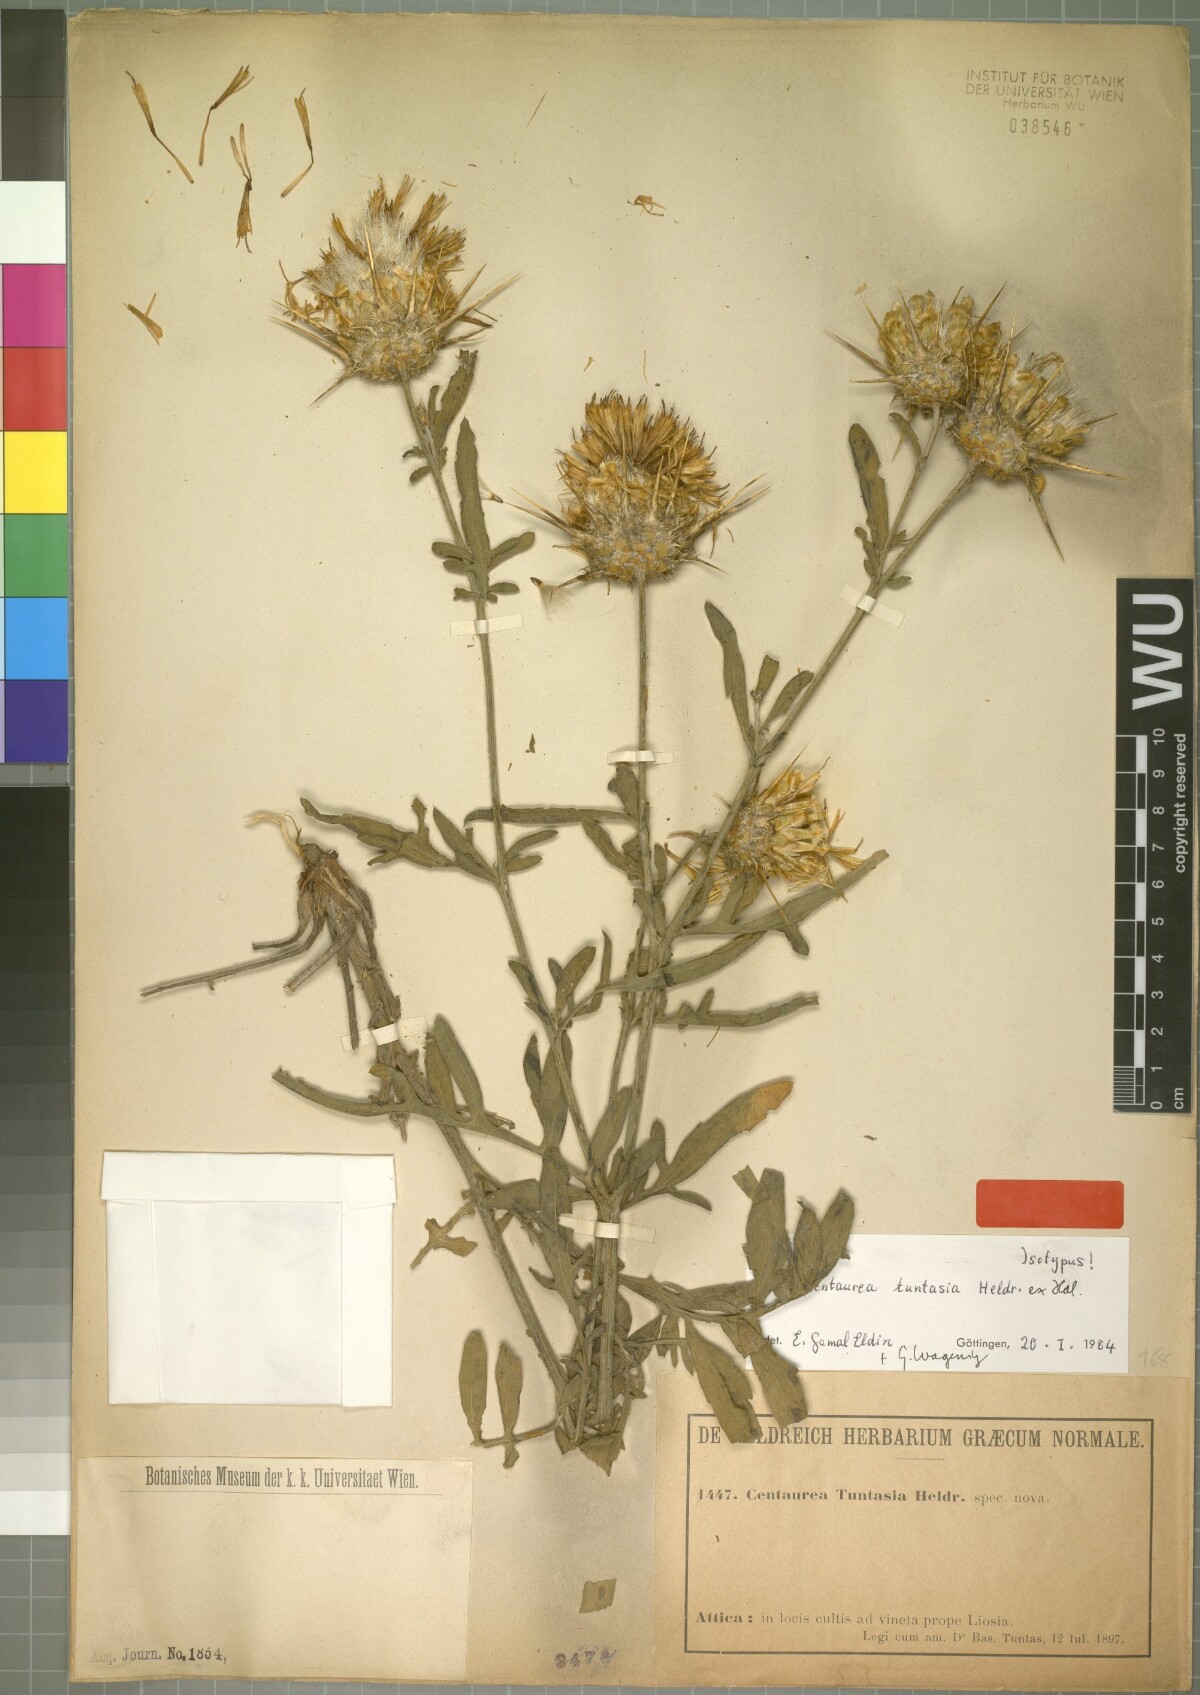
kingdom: Plantae
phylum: Tracheophyta
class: Magnoliopsida
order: Asterales
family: Asteraceae
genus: Centaurea
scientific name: Centaurea tuntasia
